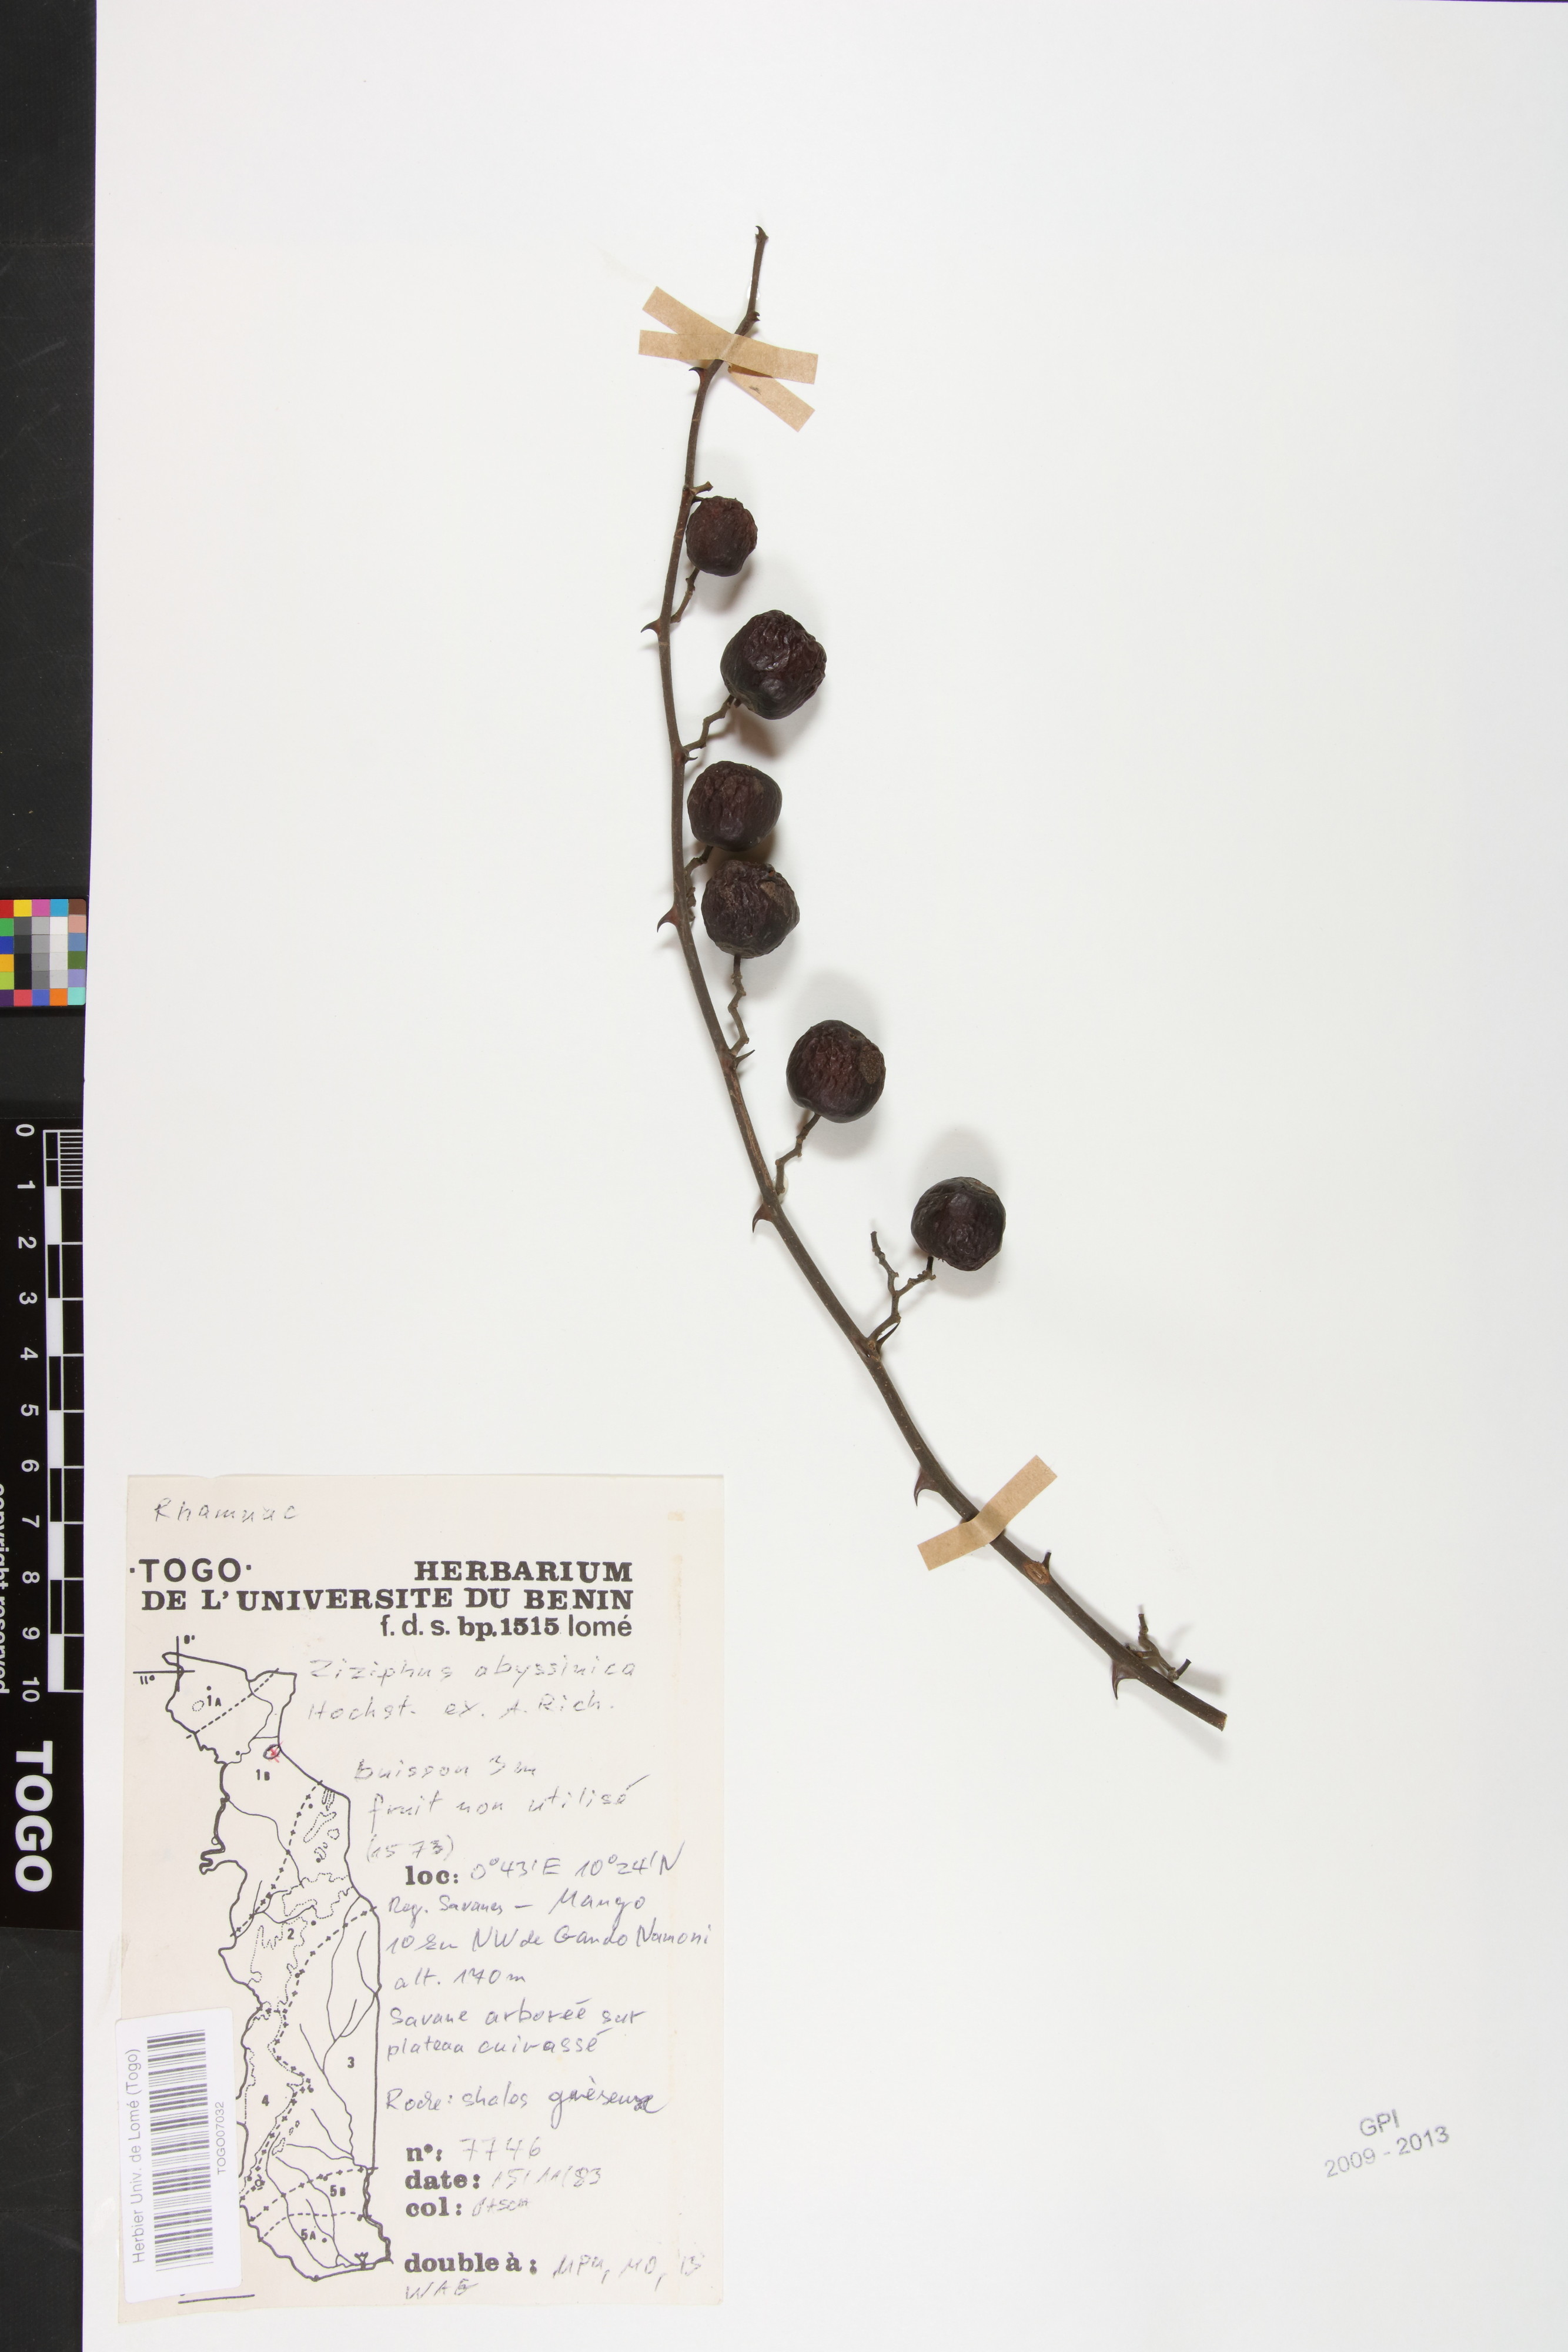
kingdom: Plantae
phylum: Tracheophyta
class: Magnoliopsida
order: Rosales
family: Rhamnaceae
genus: Ziziphus
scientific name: Ziziphus abyssinica
